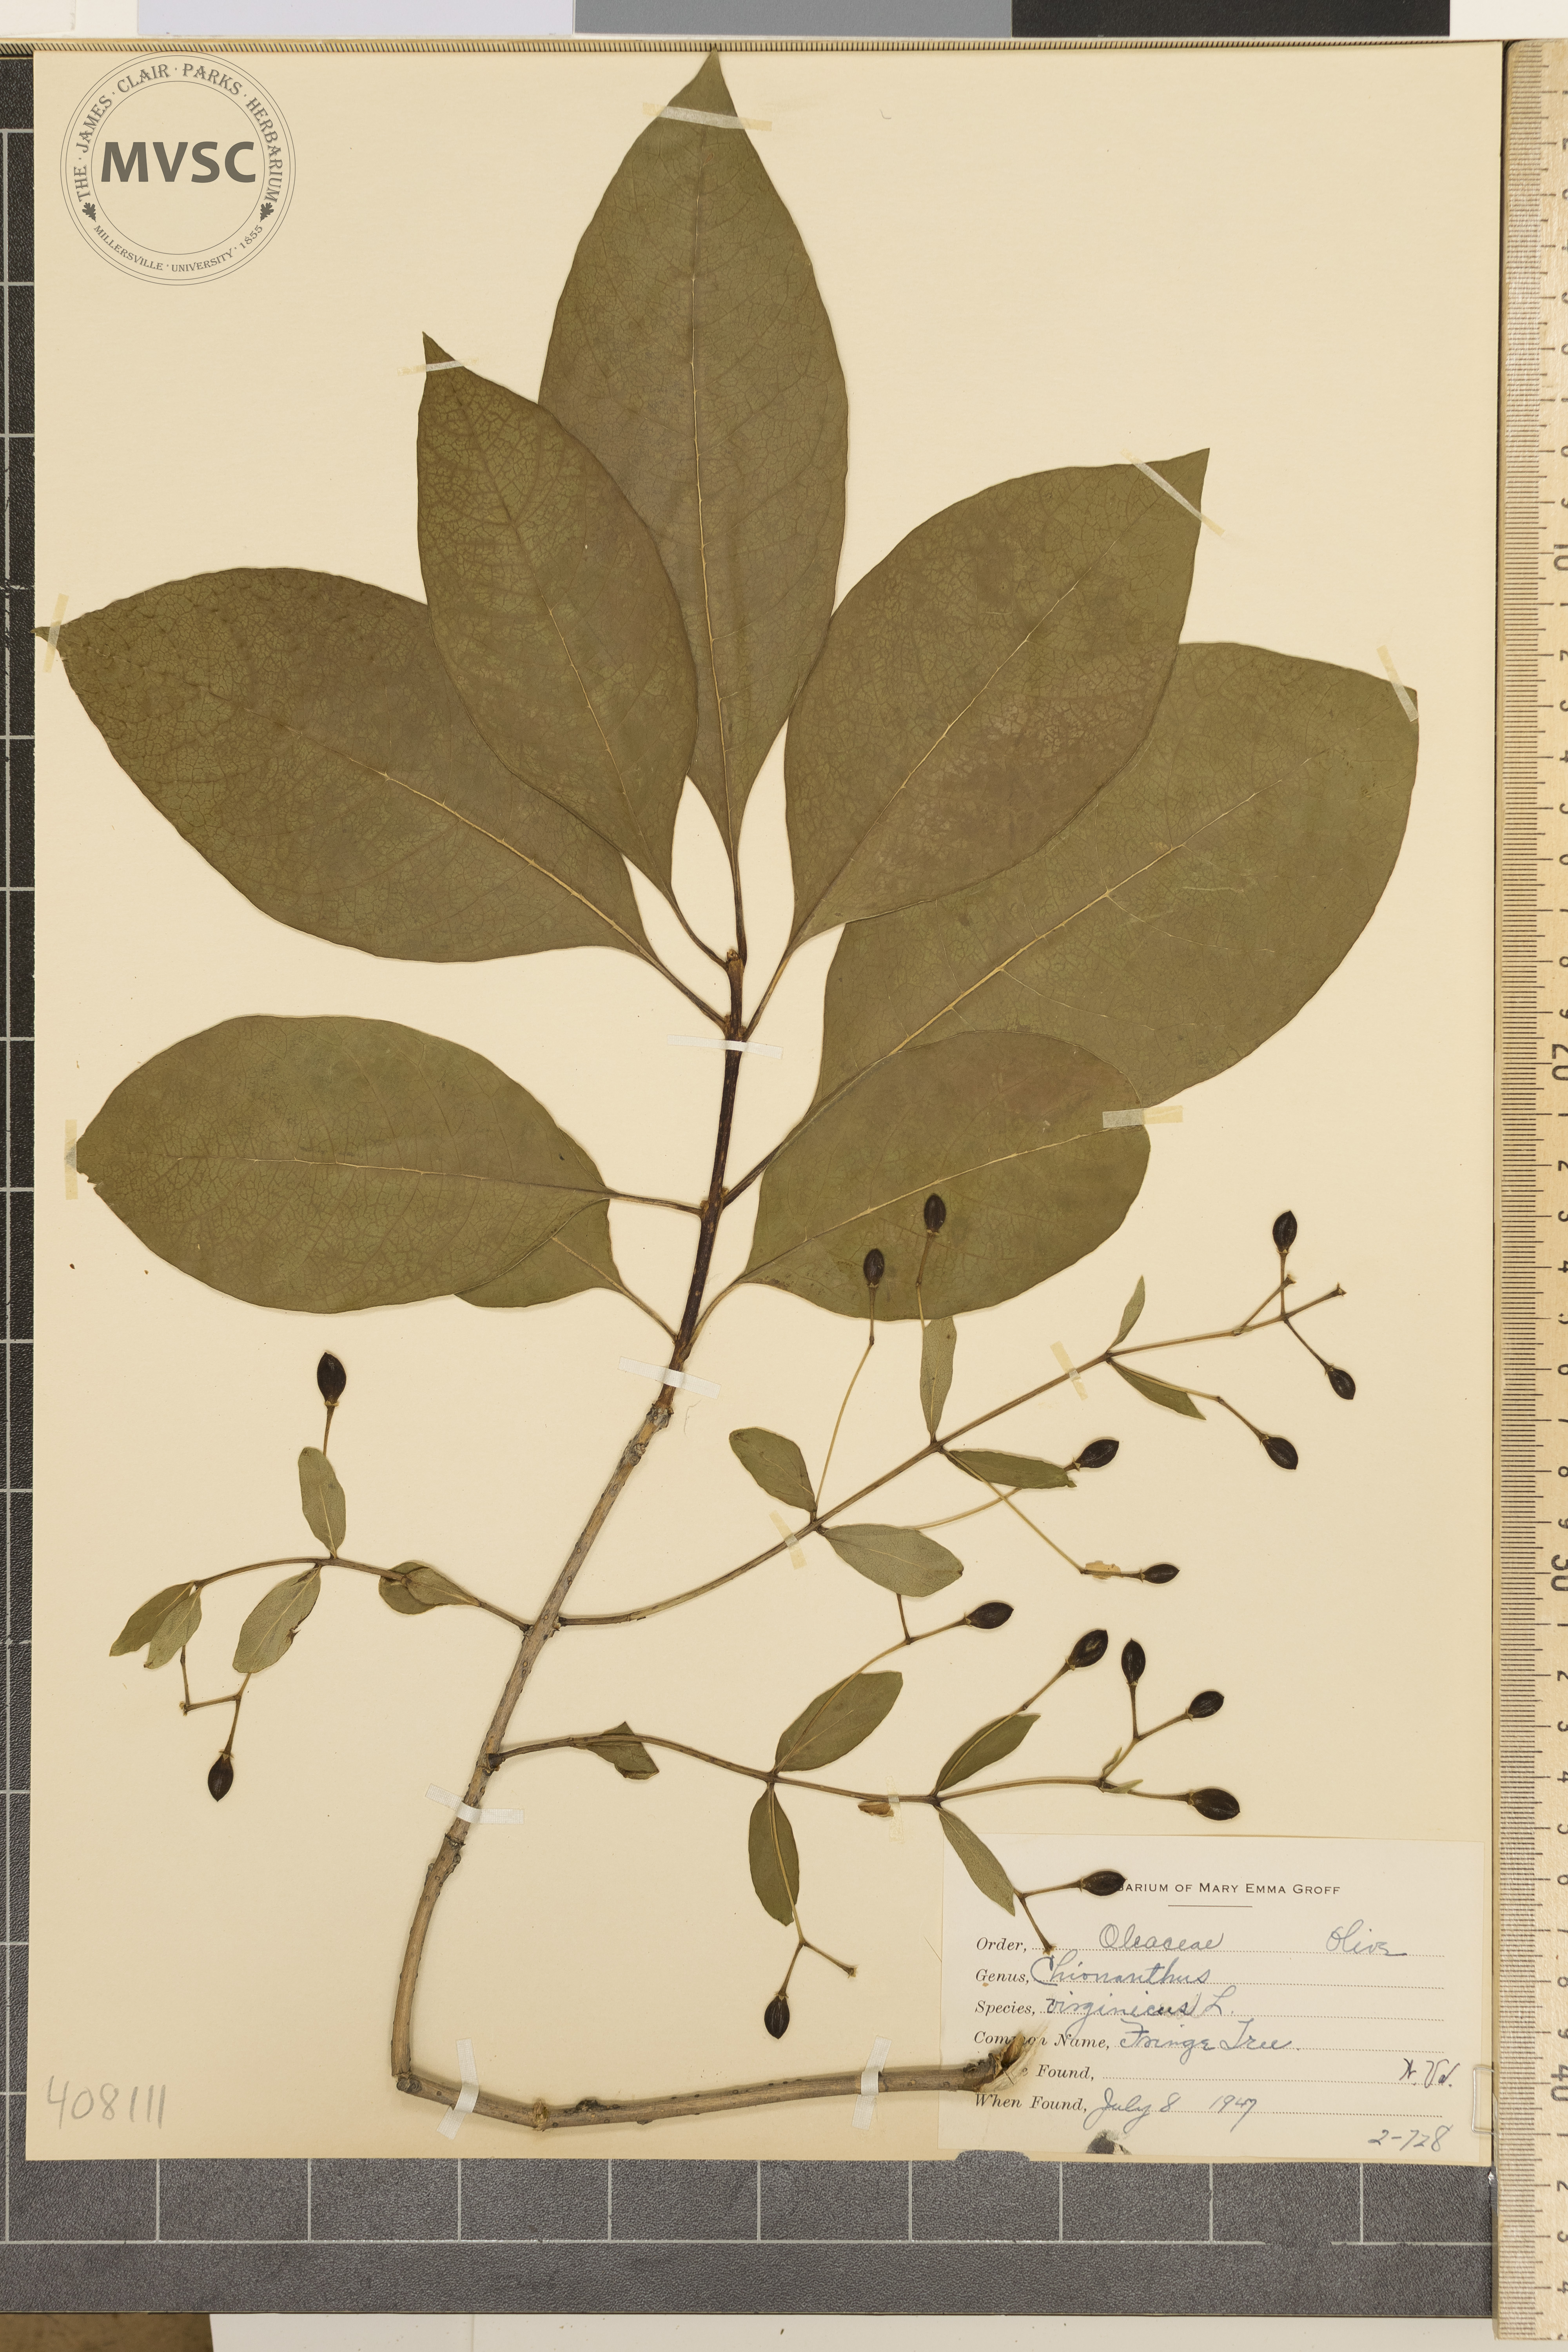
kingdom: Plantae
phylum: Tracheophyta
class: Magnoliopsida
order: Lamiales
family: Oleaceae
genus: Chionanthus
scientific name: Chionanthus virginicus
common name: Fringe Tree
